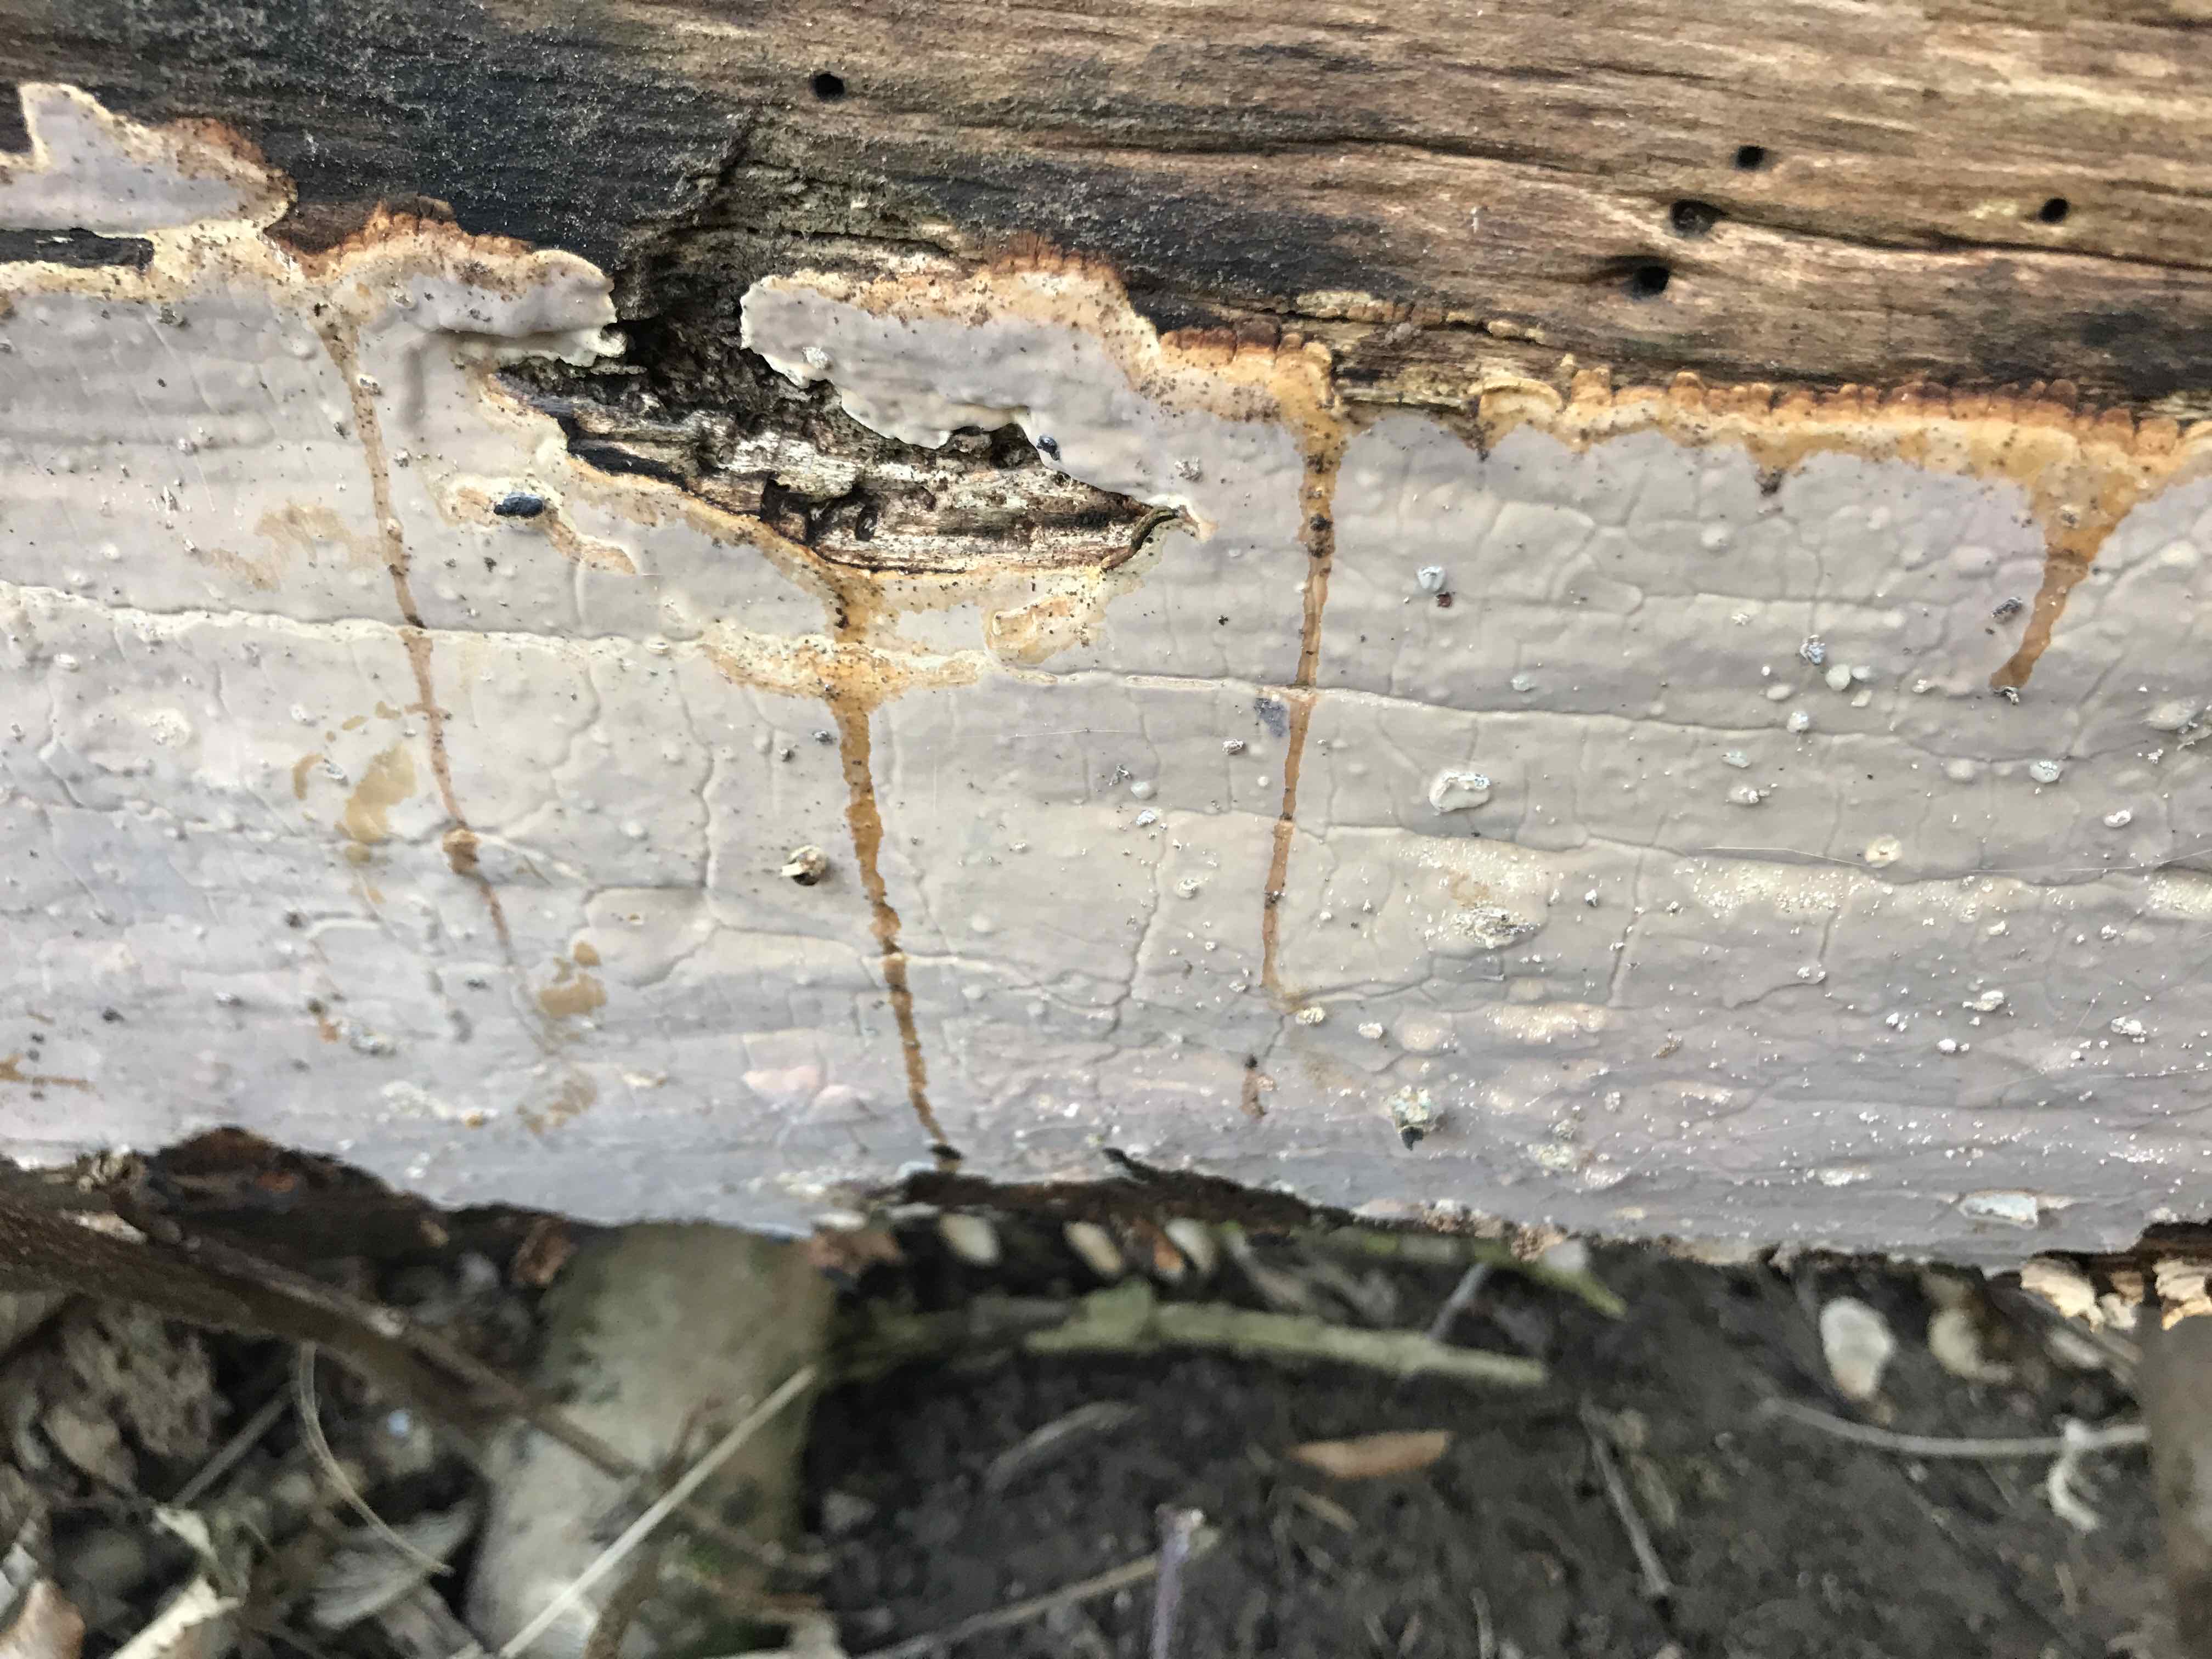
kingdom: Fungi
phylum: Basidiomycota
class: Agaricomycetes
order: Russulales
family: Peniophoraceae
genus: Scytinostroma
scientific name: Scytinostroma hemidichophyticum
